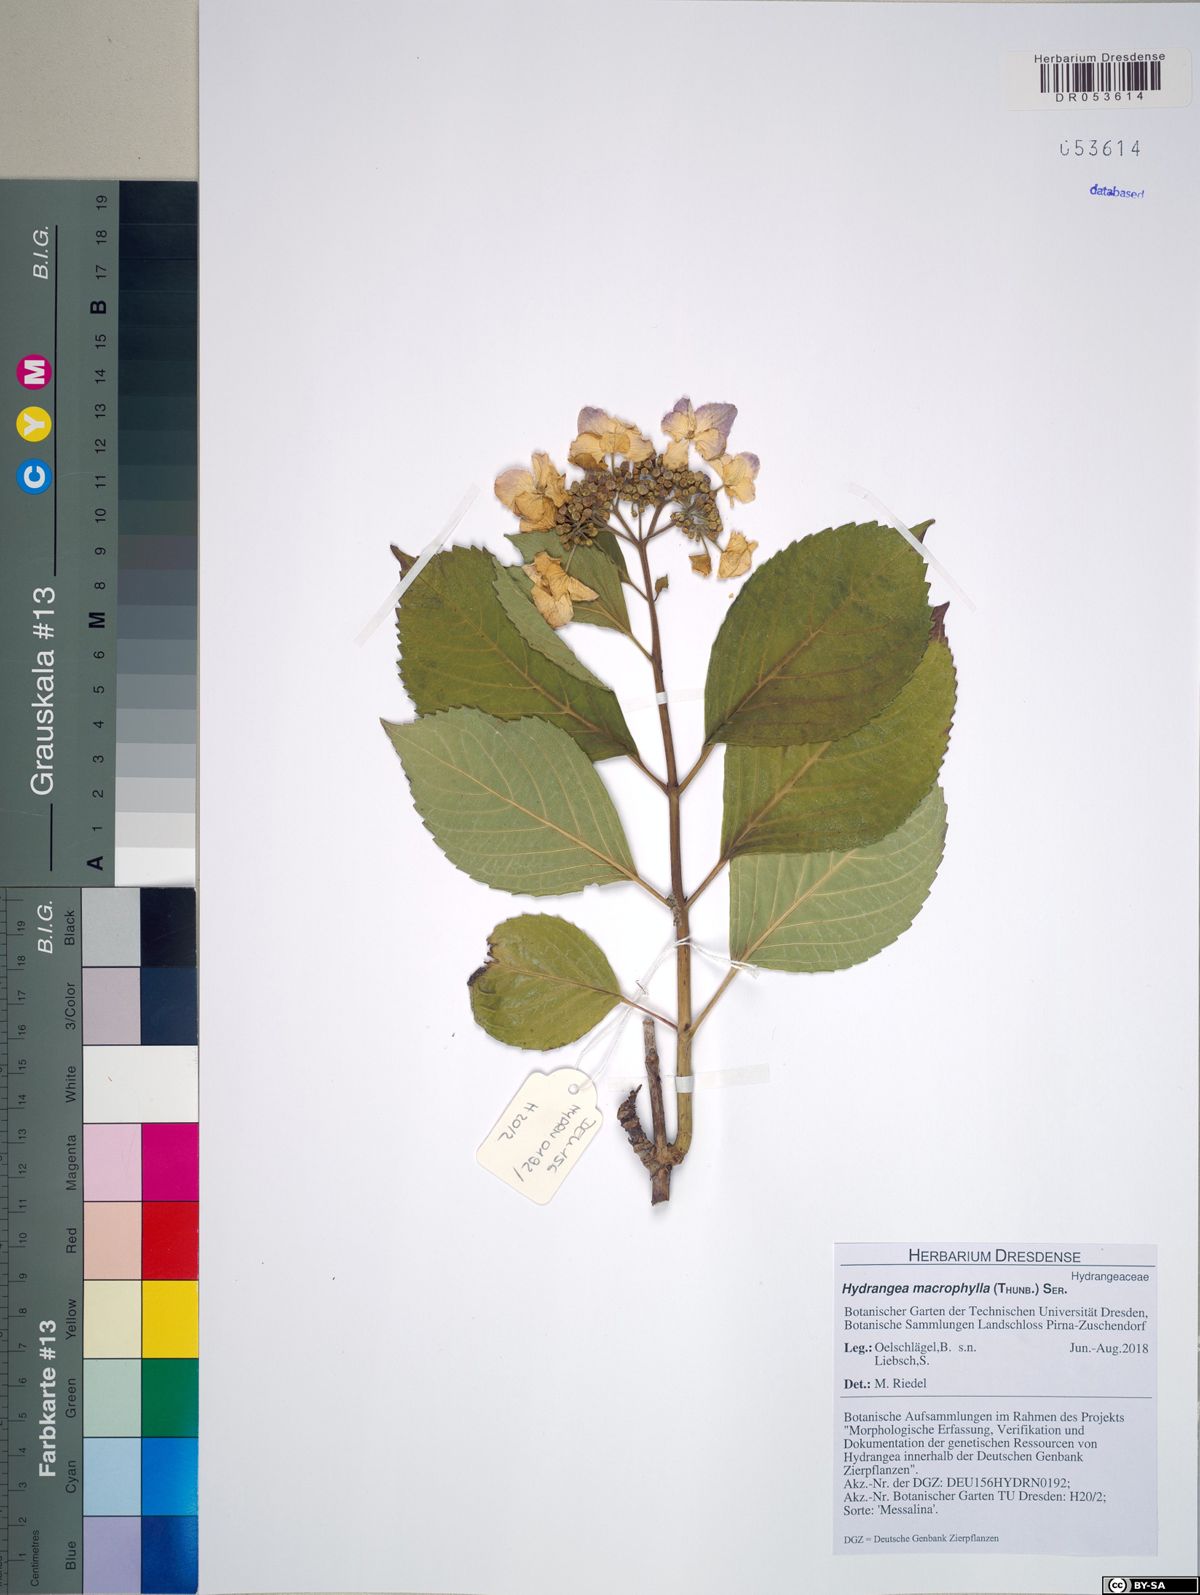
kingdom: Plantae
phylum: Tracheophyta
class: Magnoliopsida
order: Cornales
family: Hydrangeaceae
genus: Hydrangea
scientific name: Hydrangea macrophylla
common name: Hydrangea
